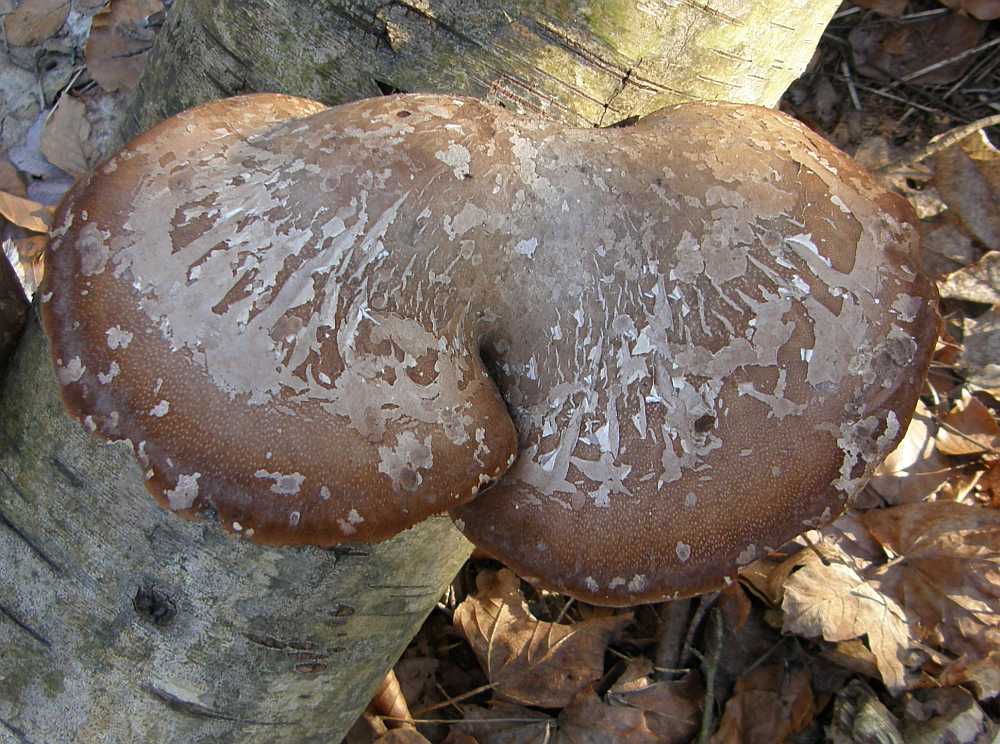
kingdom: Fungi
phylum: Basidiomycota
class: Agaricomycetes
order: Polyporales
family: Fomitopsidaceae
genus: Fomitopsis
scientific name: Fomitopsis betulina
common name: birkeporesvamp
